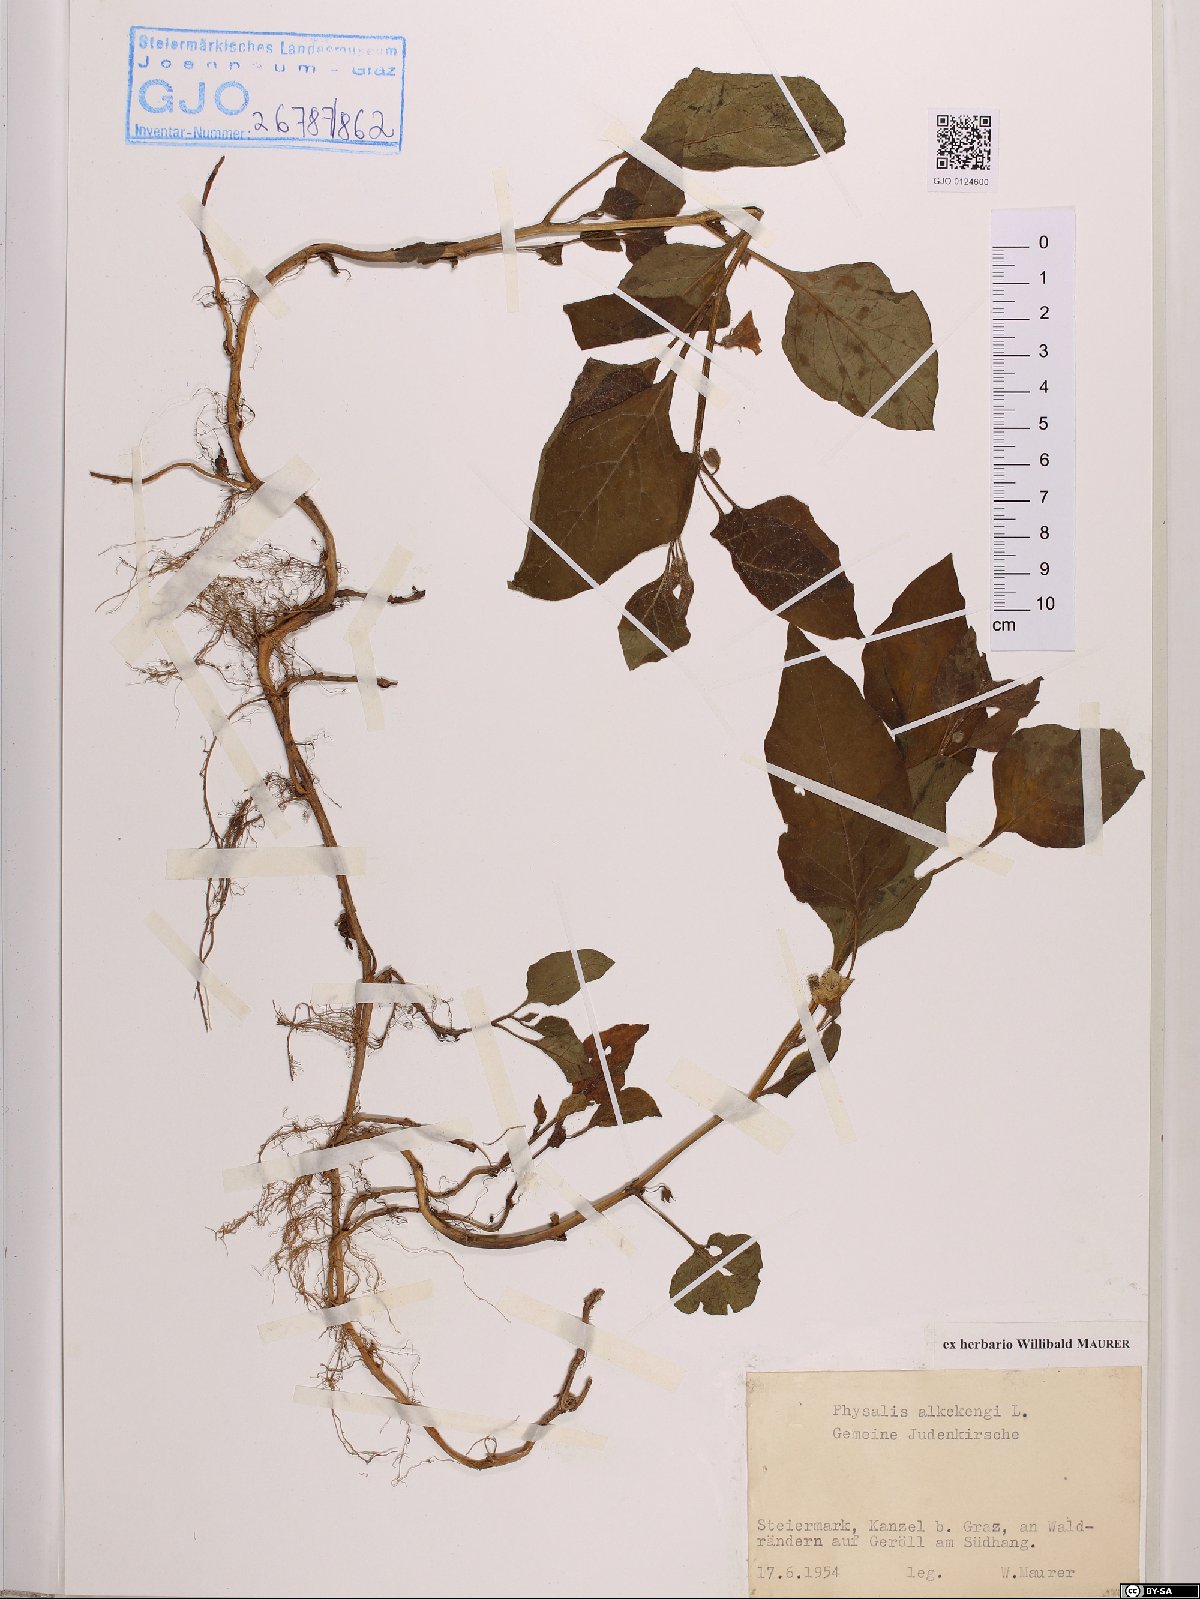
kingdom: Plantae
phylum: Tracheophyta
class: Magnoliopsida
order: Solanales
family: Solanaceae
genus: Alkekengi
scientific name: Alkekengi officinarum
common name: Japanese-lantern
